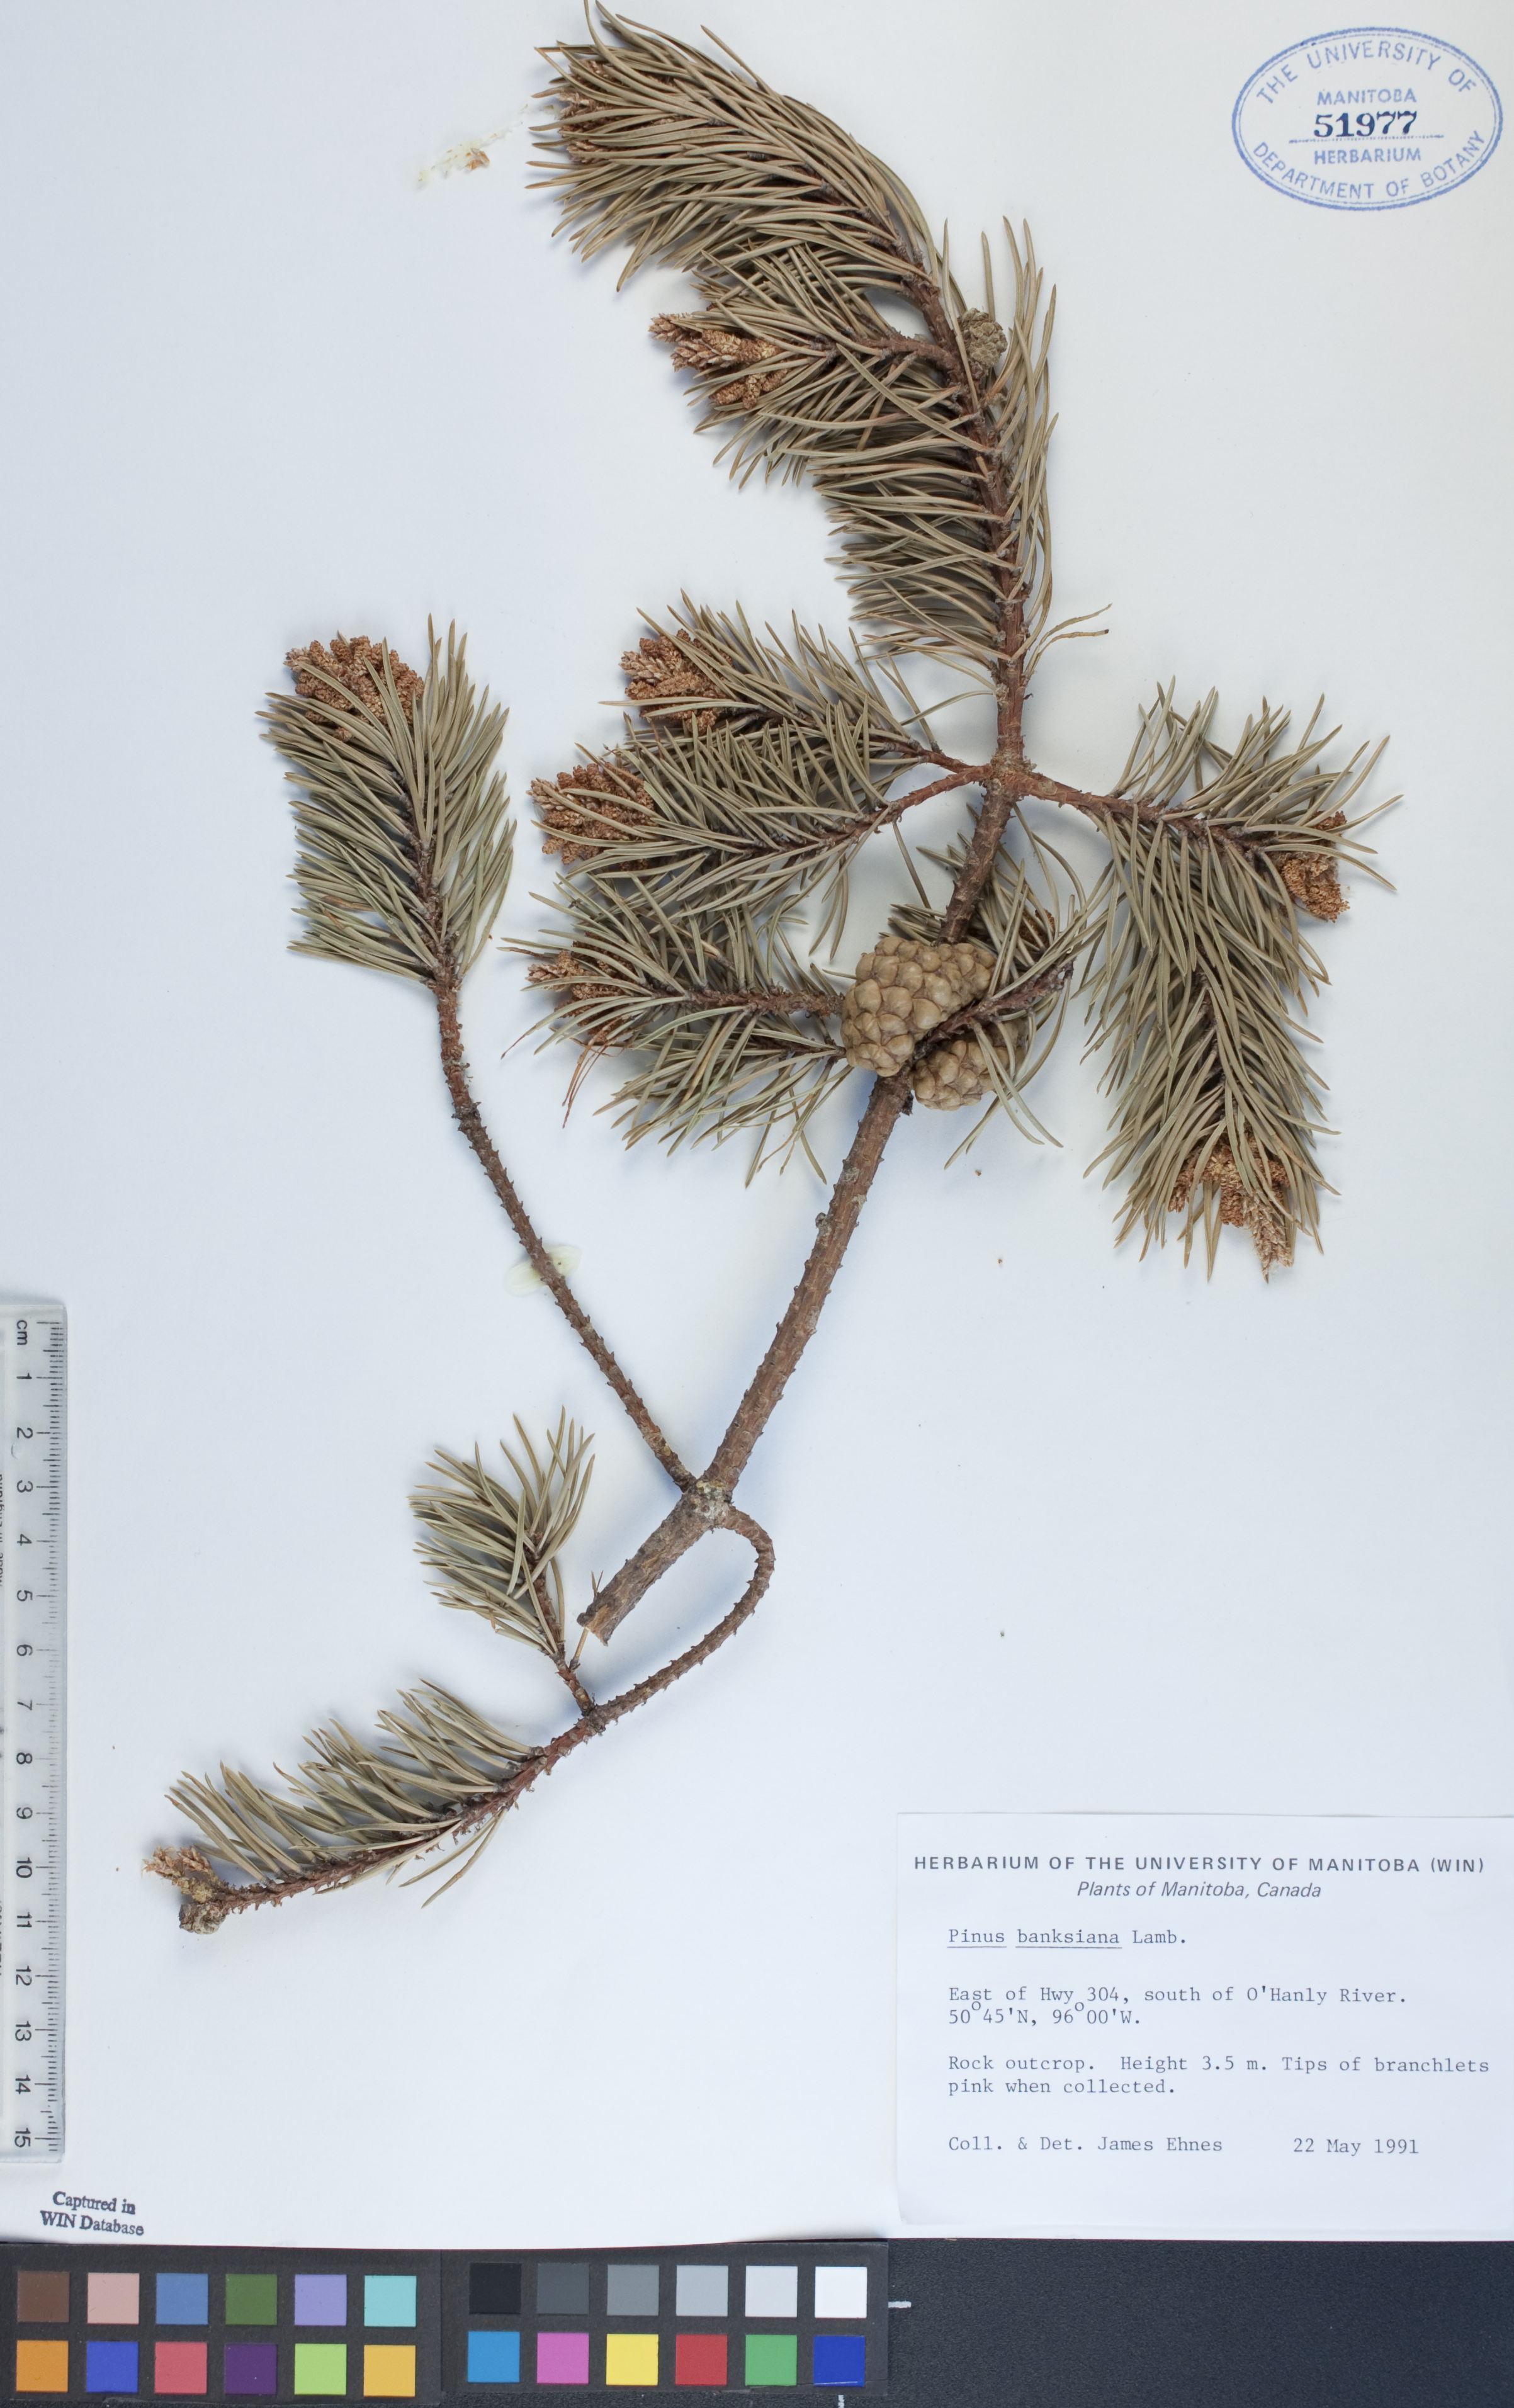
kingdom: Plantae
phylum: Tracheophyta
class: Pinopsida
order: Pinales
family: Pinaceae
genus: Pinus
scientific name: Pinus banksiana
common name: Jack pine
